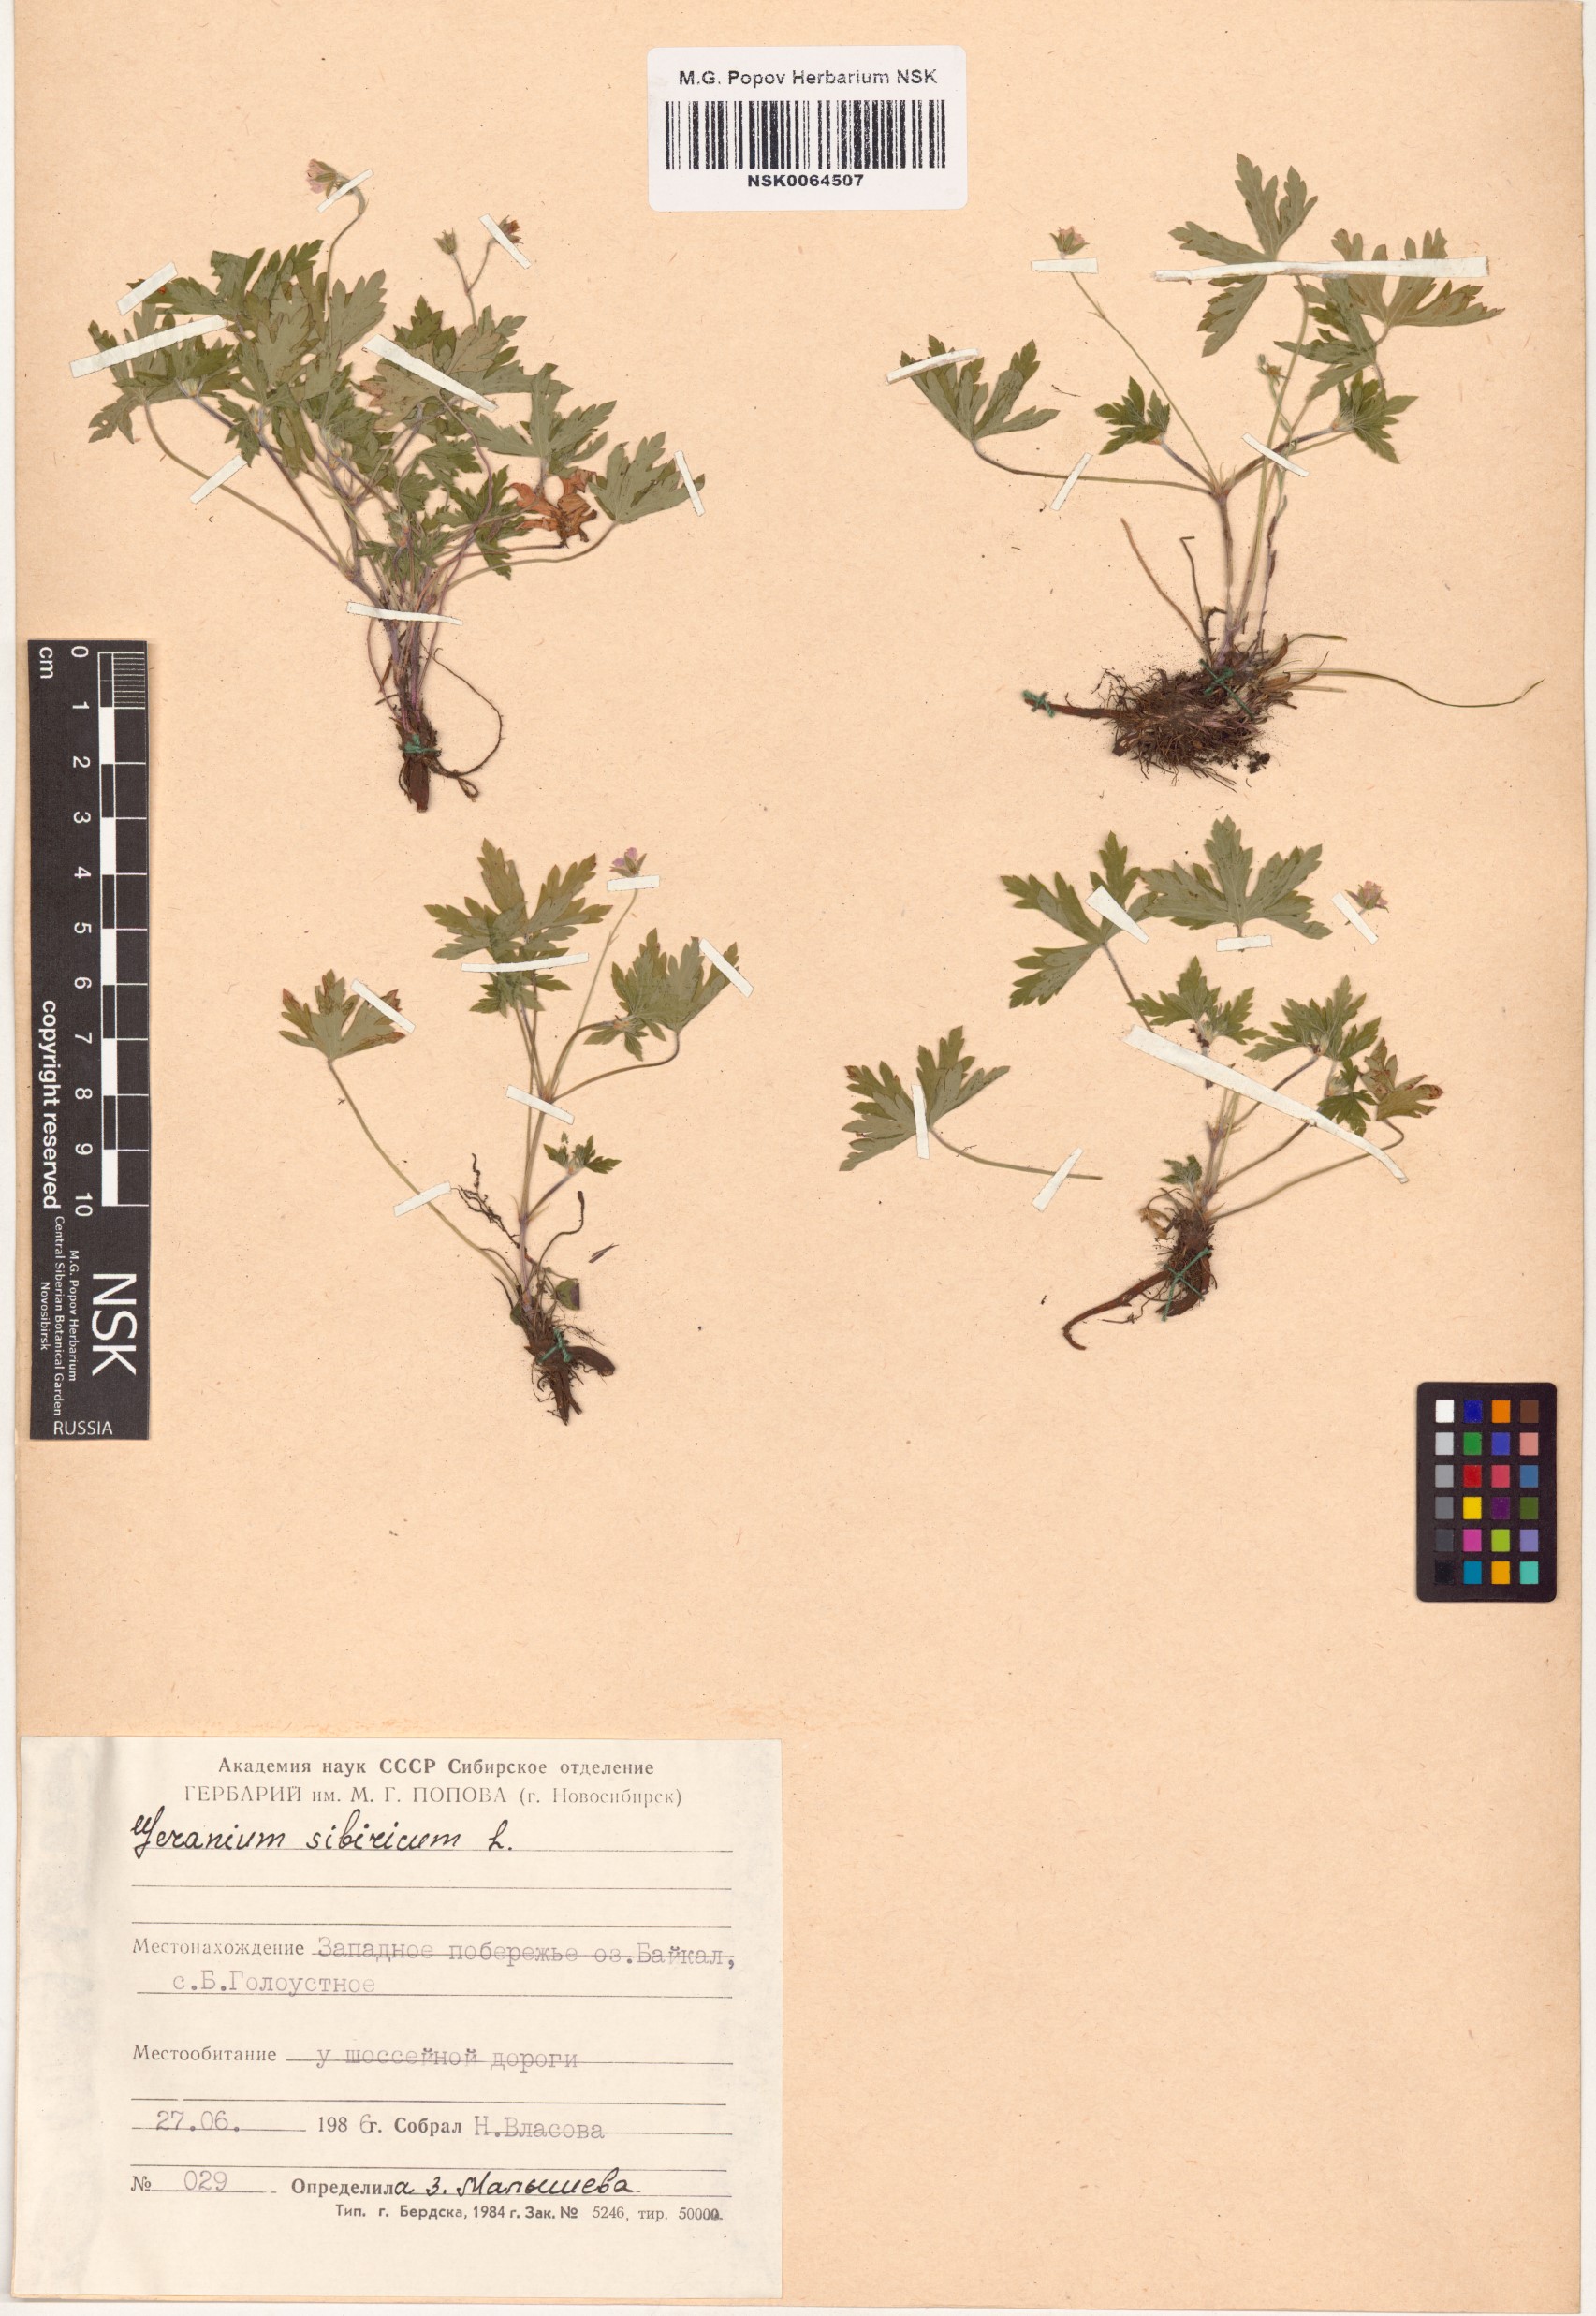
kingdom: Plantae
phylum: Tracheophyta
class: Magnoliopsida
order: Geraniales
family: Geraniaceae
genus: Geranium
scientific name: Geranium sibiricum
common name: Siberian crane's-bill
